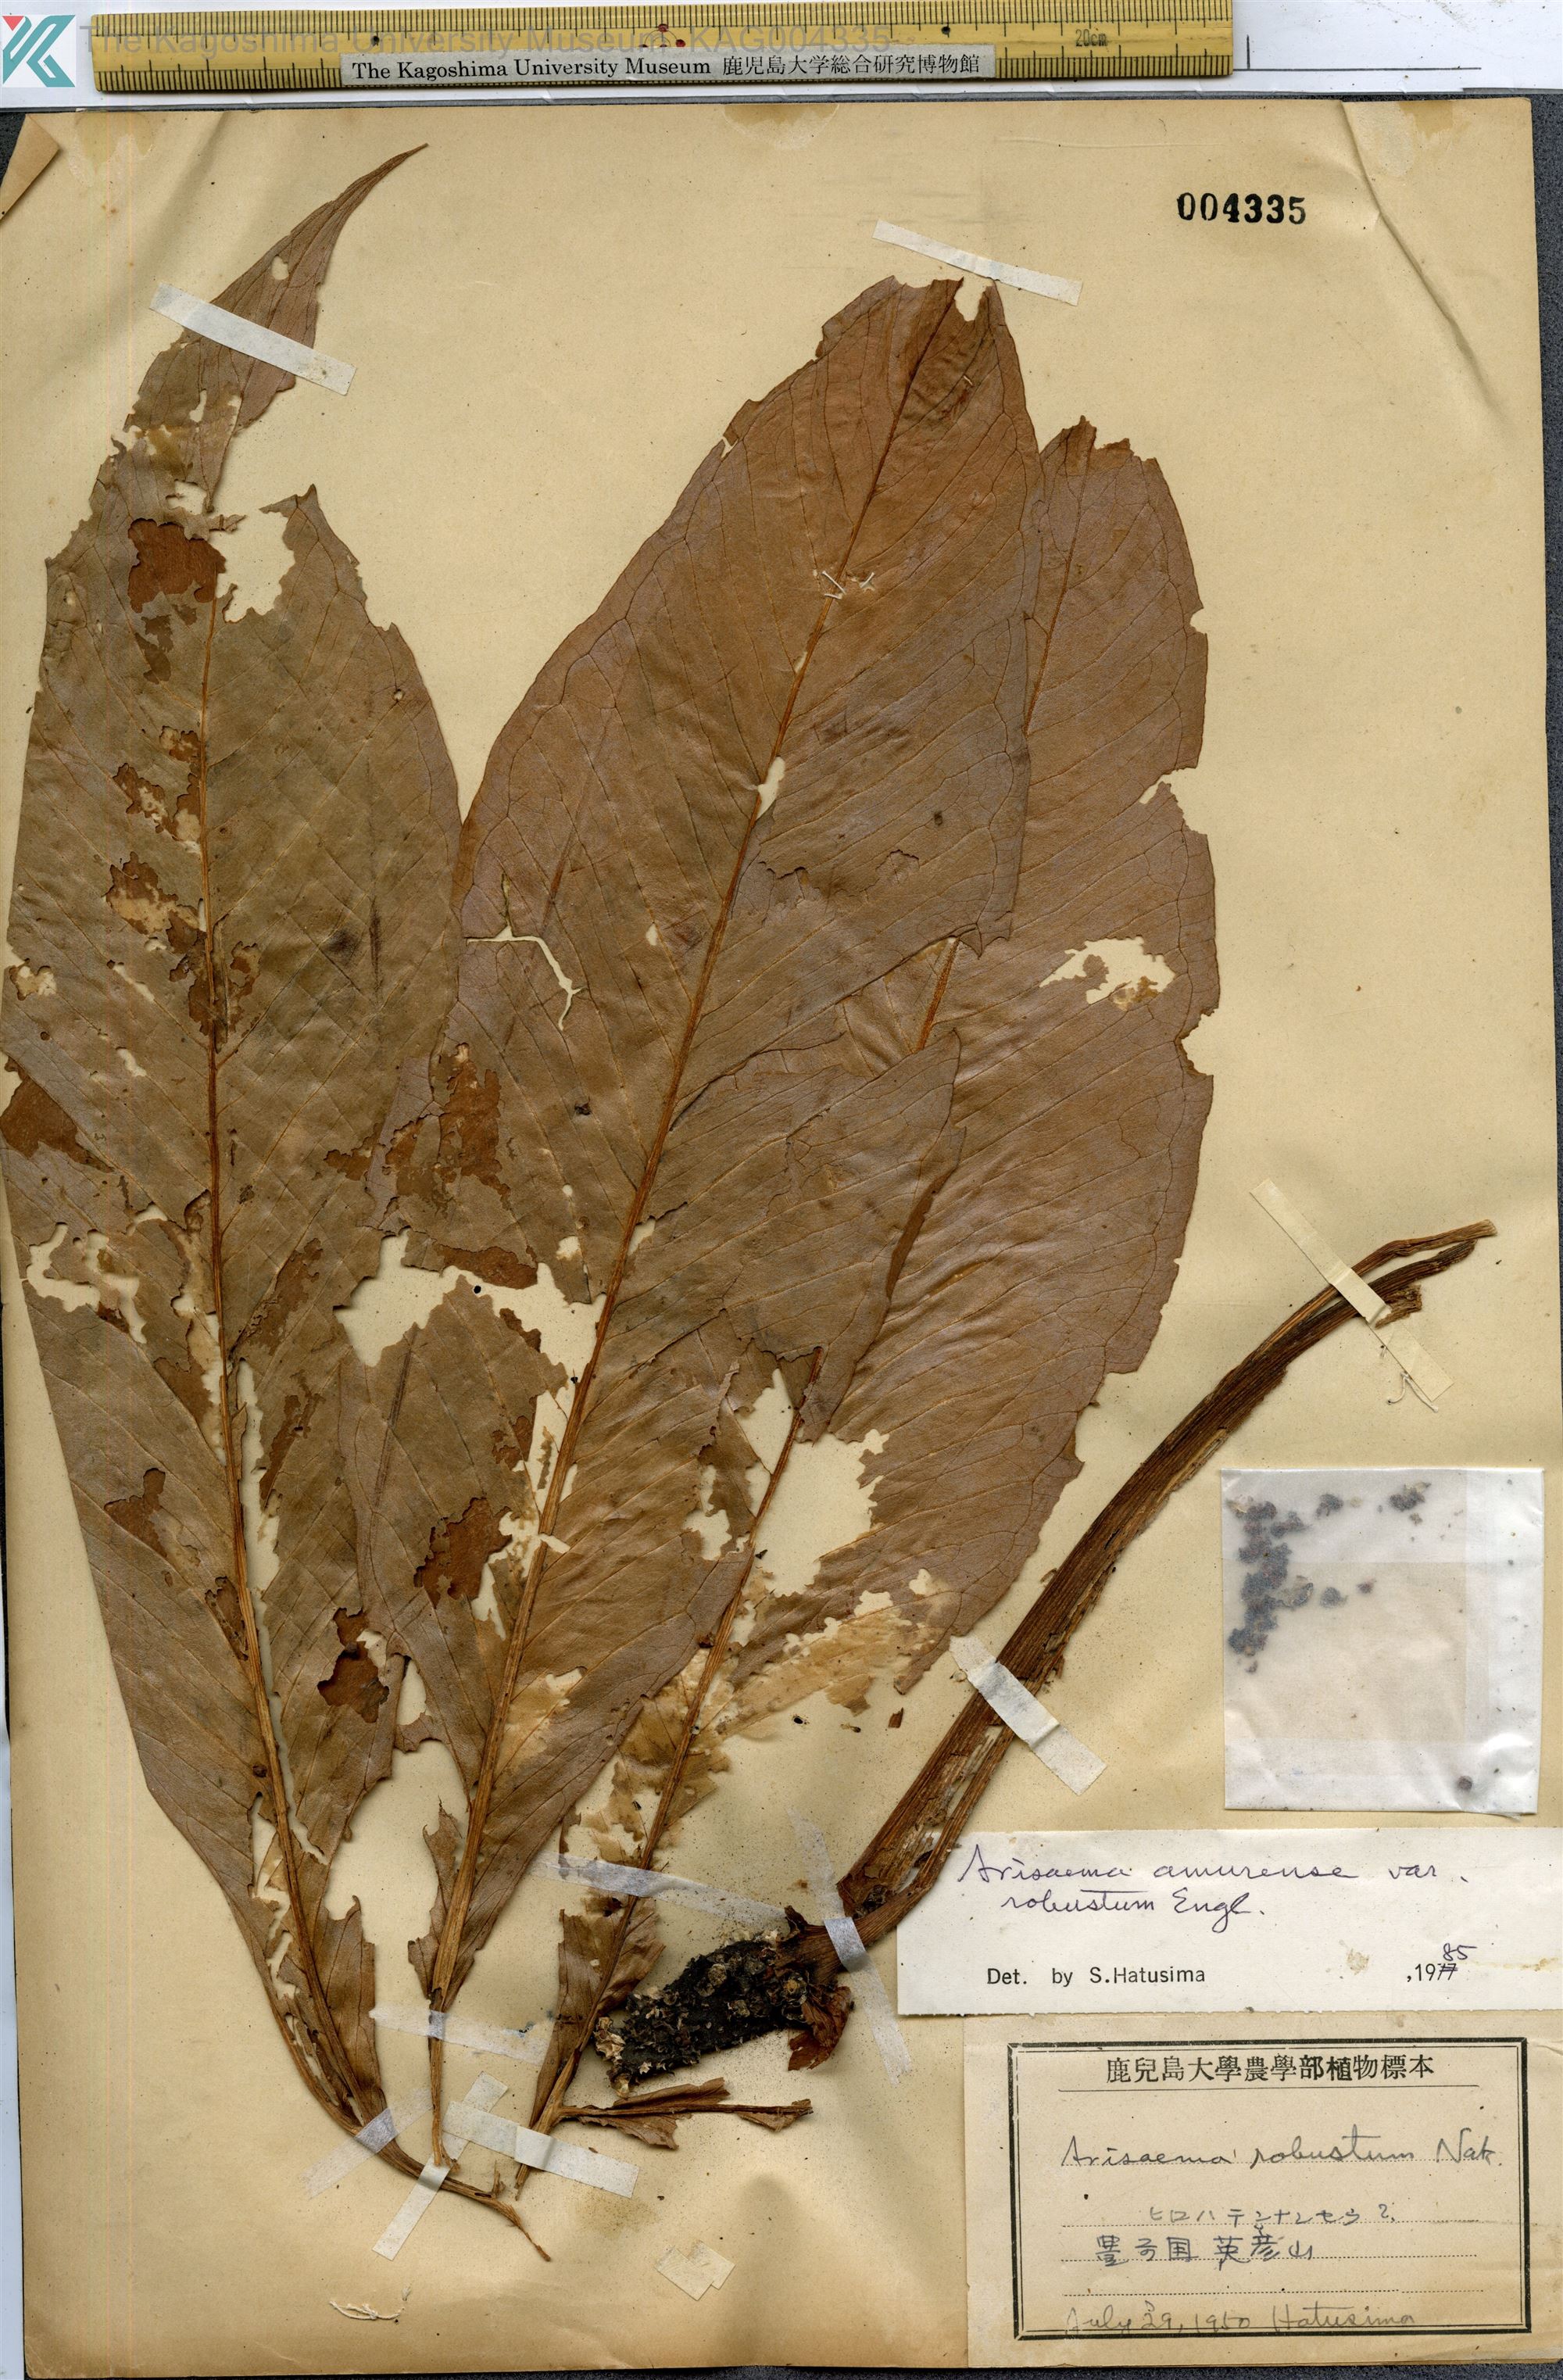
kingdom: Plantae
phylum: Tracheophyta
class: Liliopsida
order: Alismatales
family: Araceae
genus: Arisaema
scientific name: Arisaema amurense
